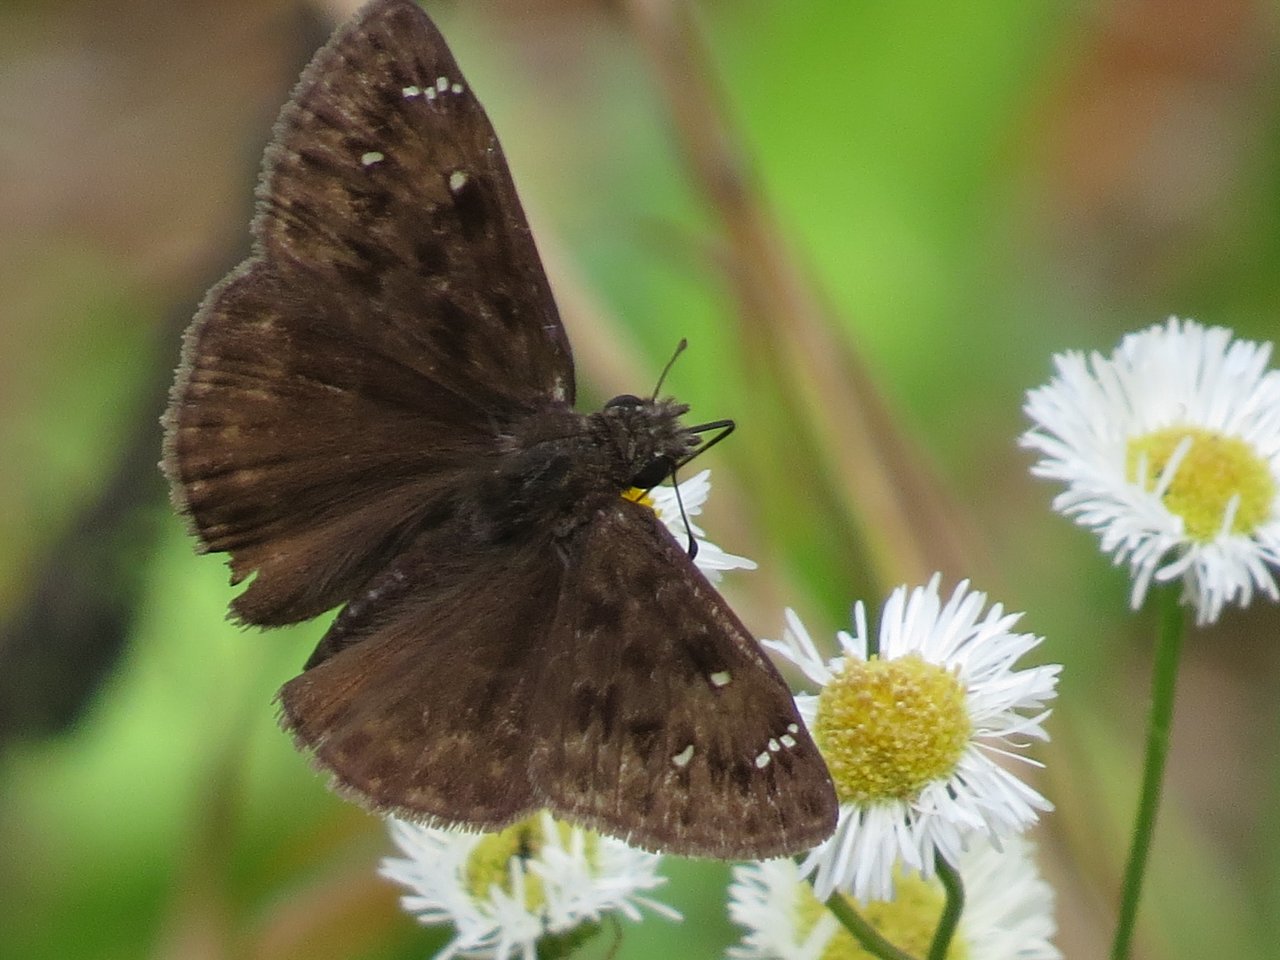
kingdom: Animalia
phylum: Arthropoda
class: Insecta
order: Lepidoptera
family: Hesperiidae
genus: Gesta
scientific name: Gesta
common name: Horace's Duskywing
